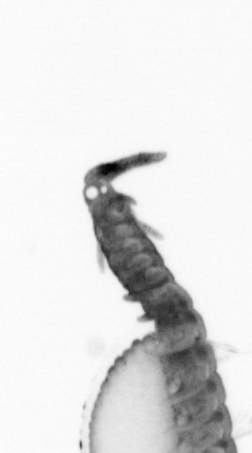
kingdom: Animalia
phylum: Annelida
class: Polychaeta
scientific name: Polychaeta
